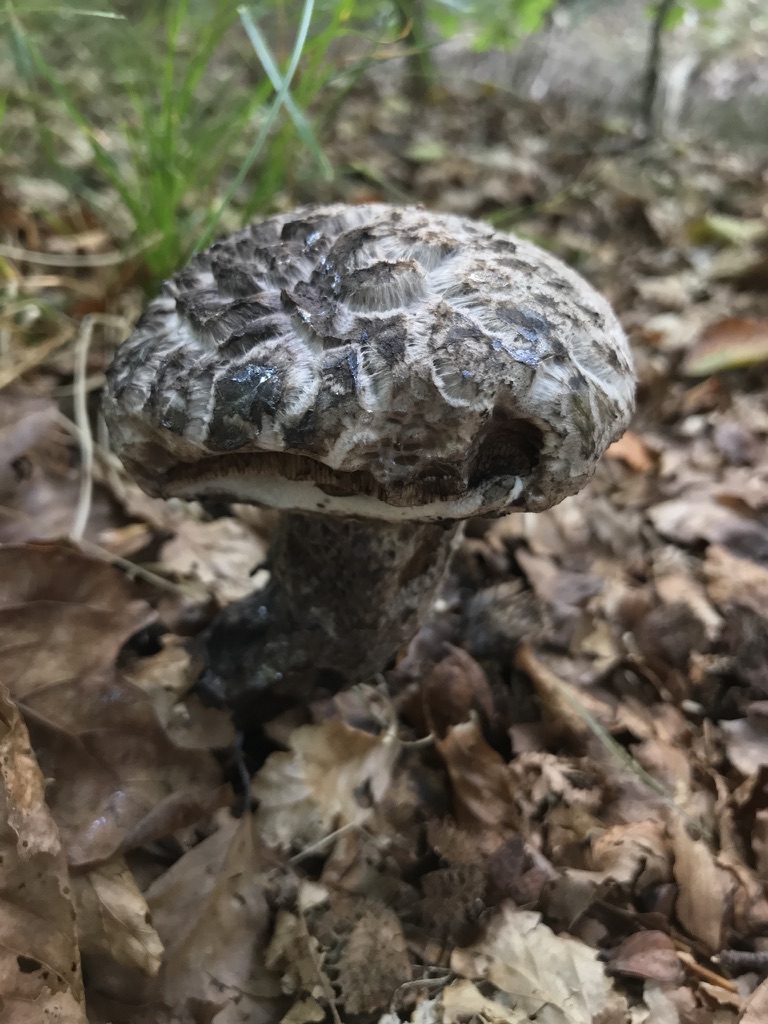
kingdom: Fungi
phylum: Basidiomycota
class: Agaricomycetes
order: Boletales
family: Boletaceae
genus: Strobilomyces
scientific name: Strobilomyces strobilaceus
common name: koglerørhat
